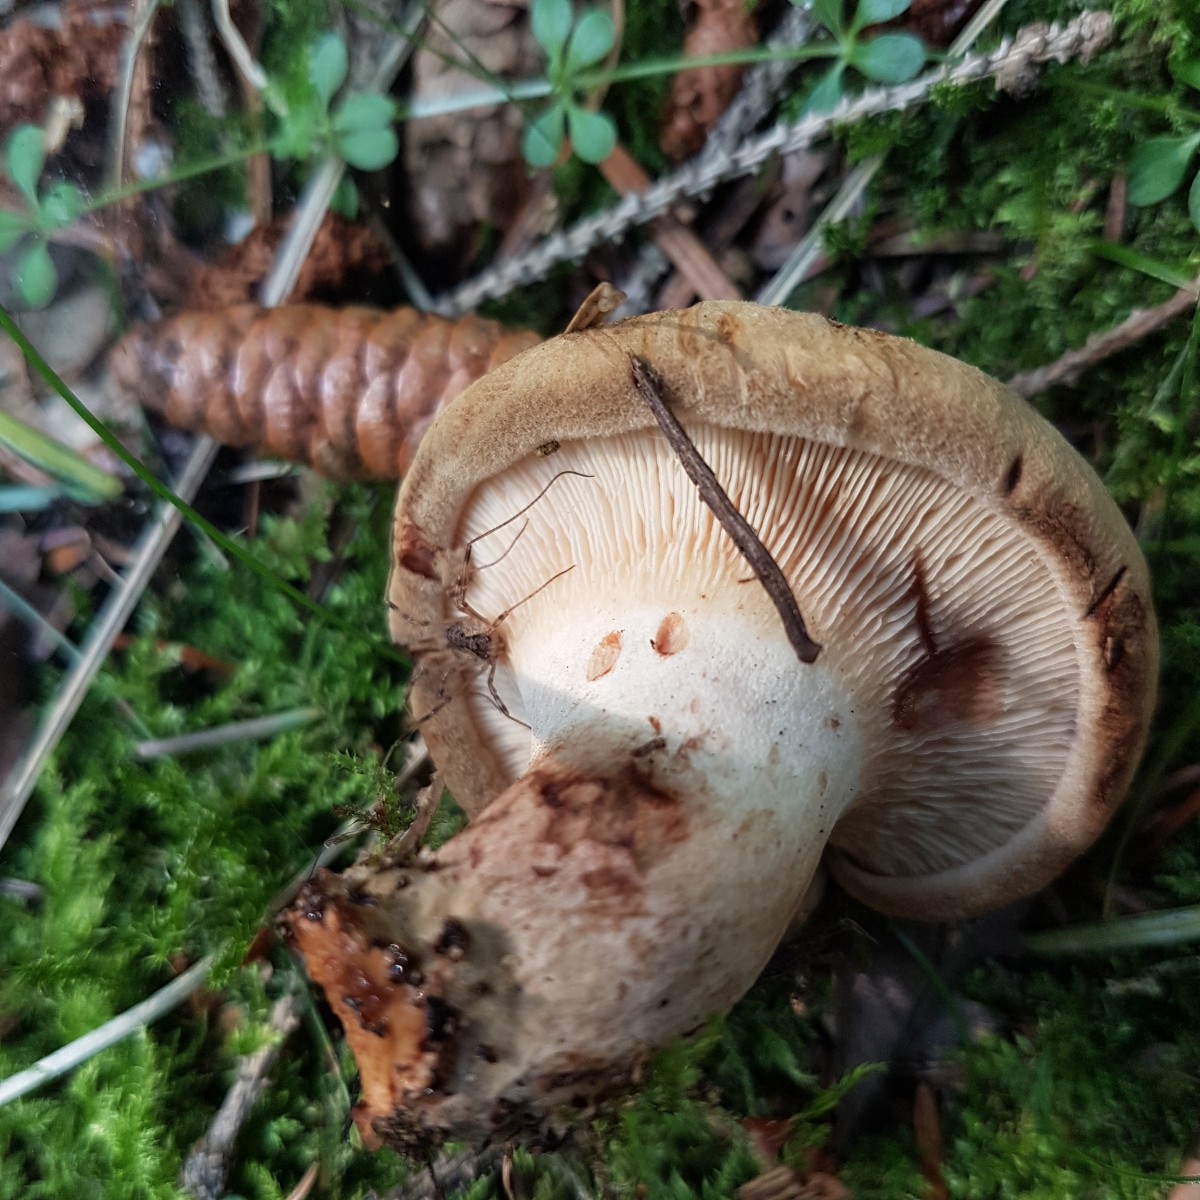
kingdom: Fungi
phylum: Basidiomycota
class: Agaricomycetes
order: Boletales
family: Paxillaceae
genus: Paxillus
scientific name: Paxillus involutus
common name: almindelig netbladhat
